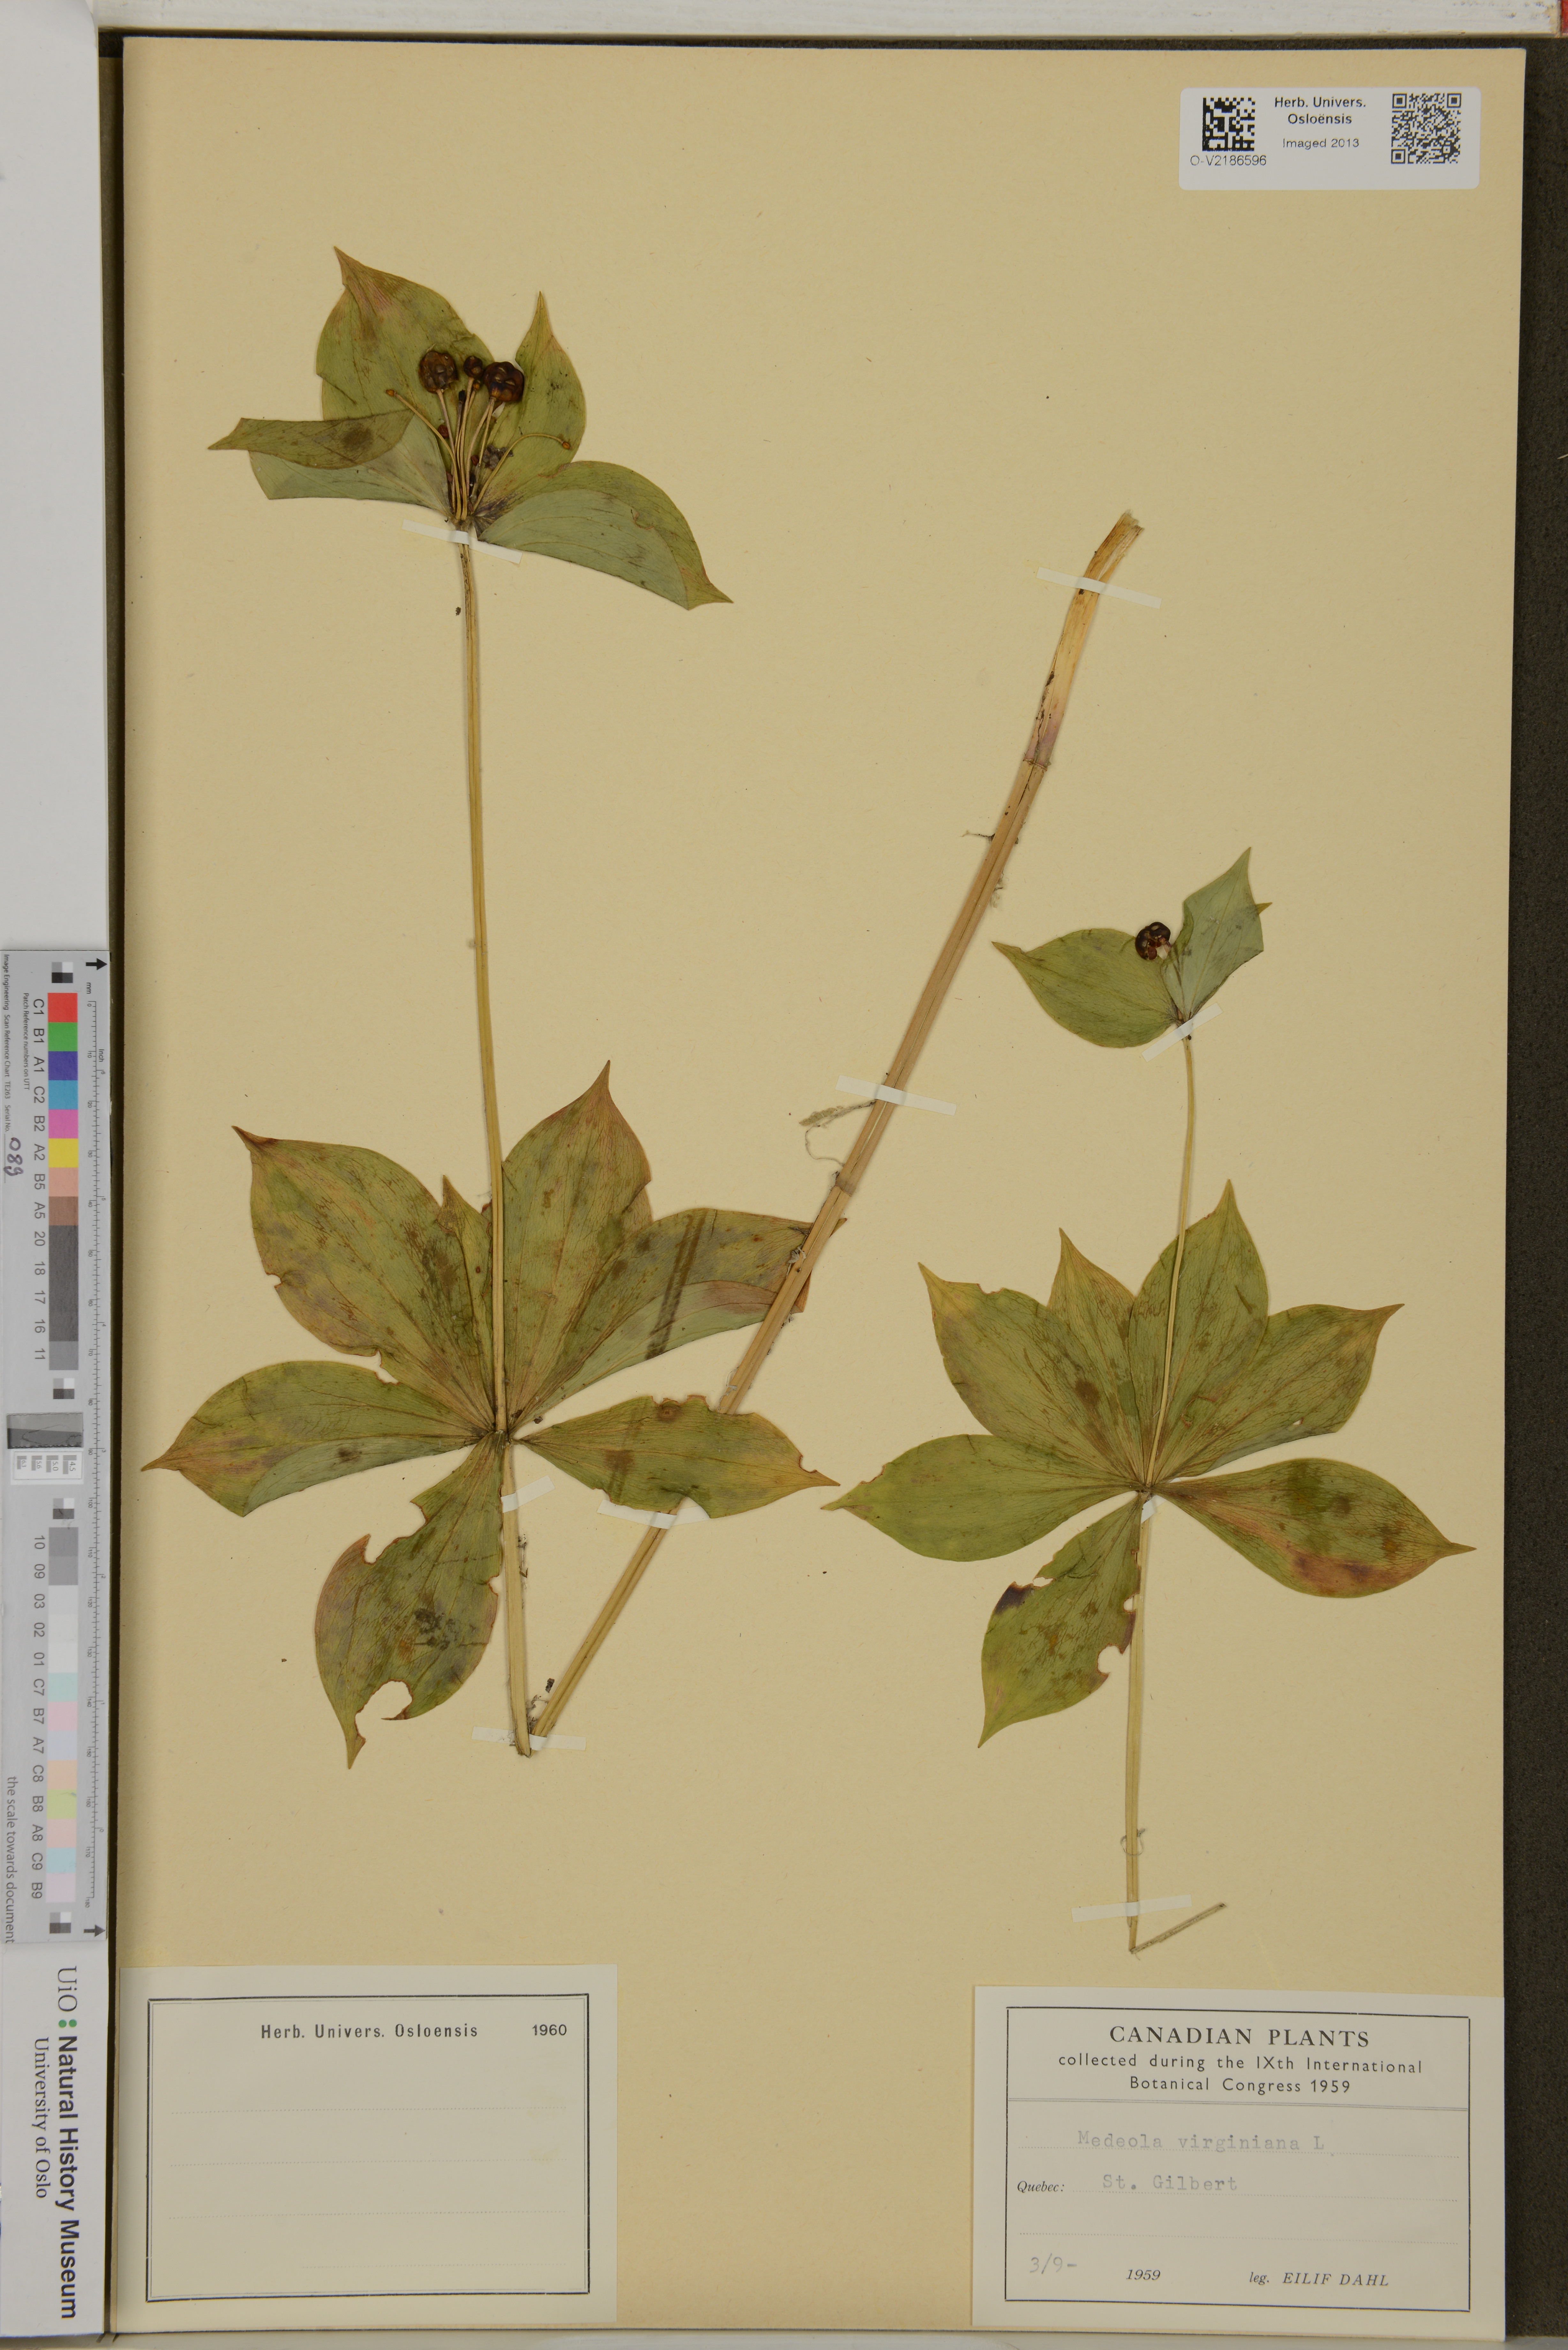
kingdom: Plantae
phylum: Tracheophyta
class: Liliopsida
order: Liliales
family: Liliaceae
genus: Medeola
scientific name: Medeola virginiana
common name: Indian cucumber-root
